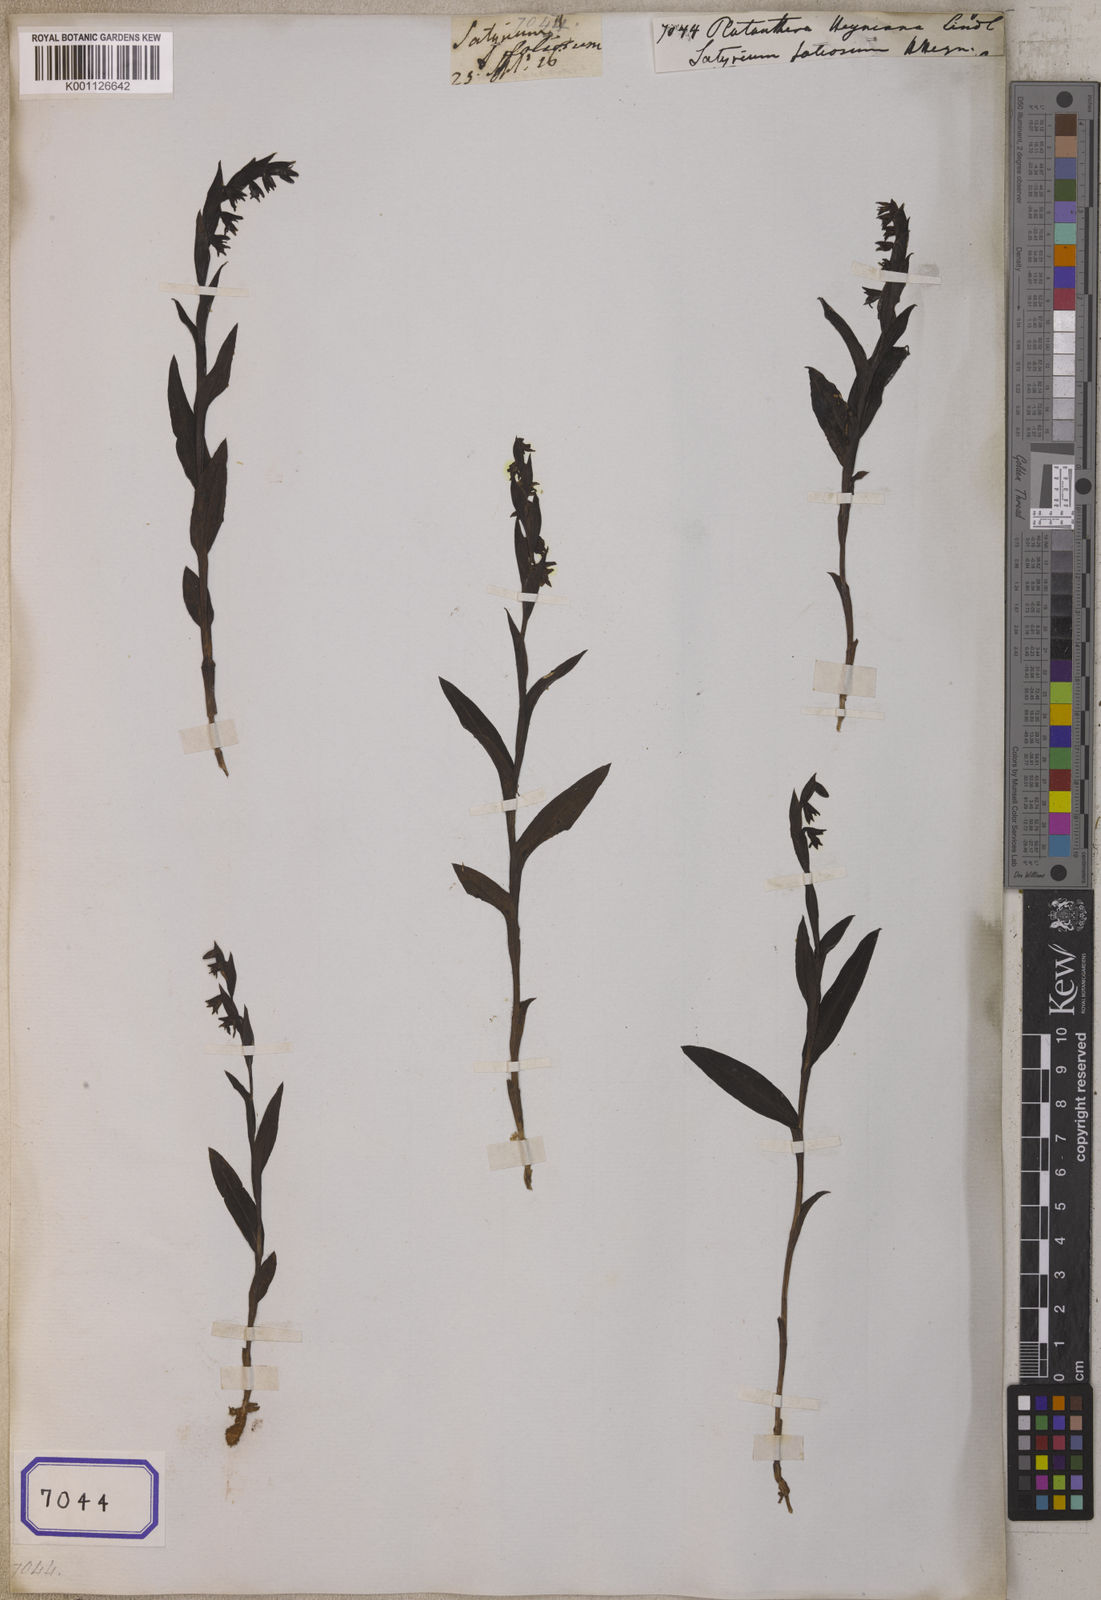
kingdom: Plantae
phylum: Tracheophyta
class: Liliopsida
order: Asparagales
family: Orchidaceae
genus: Habenaria
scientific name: Habenaria heyneana
